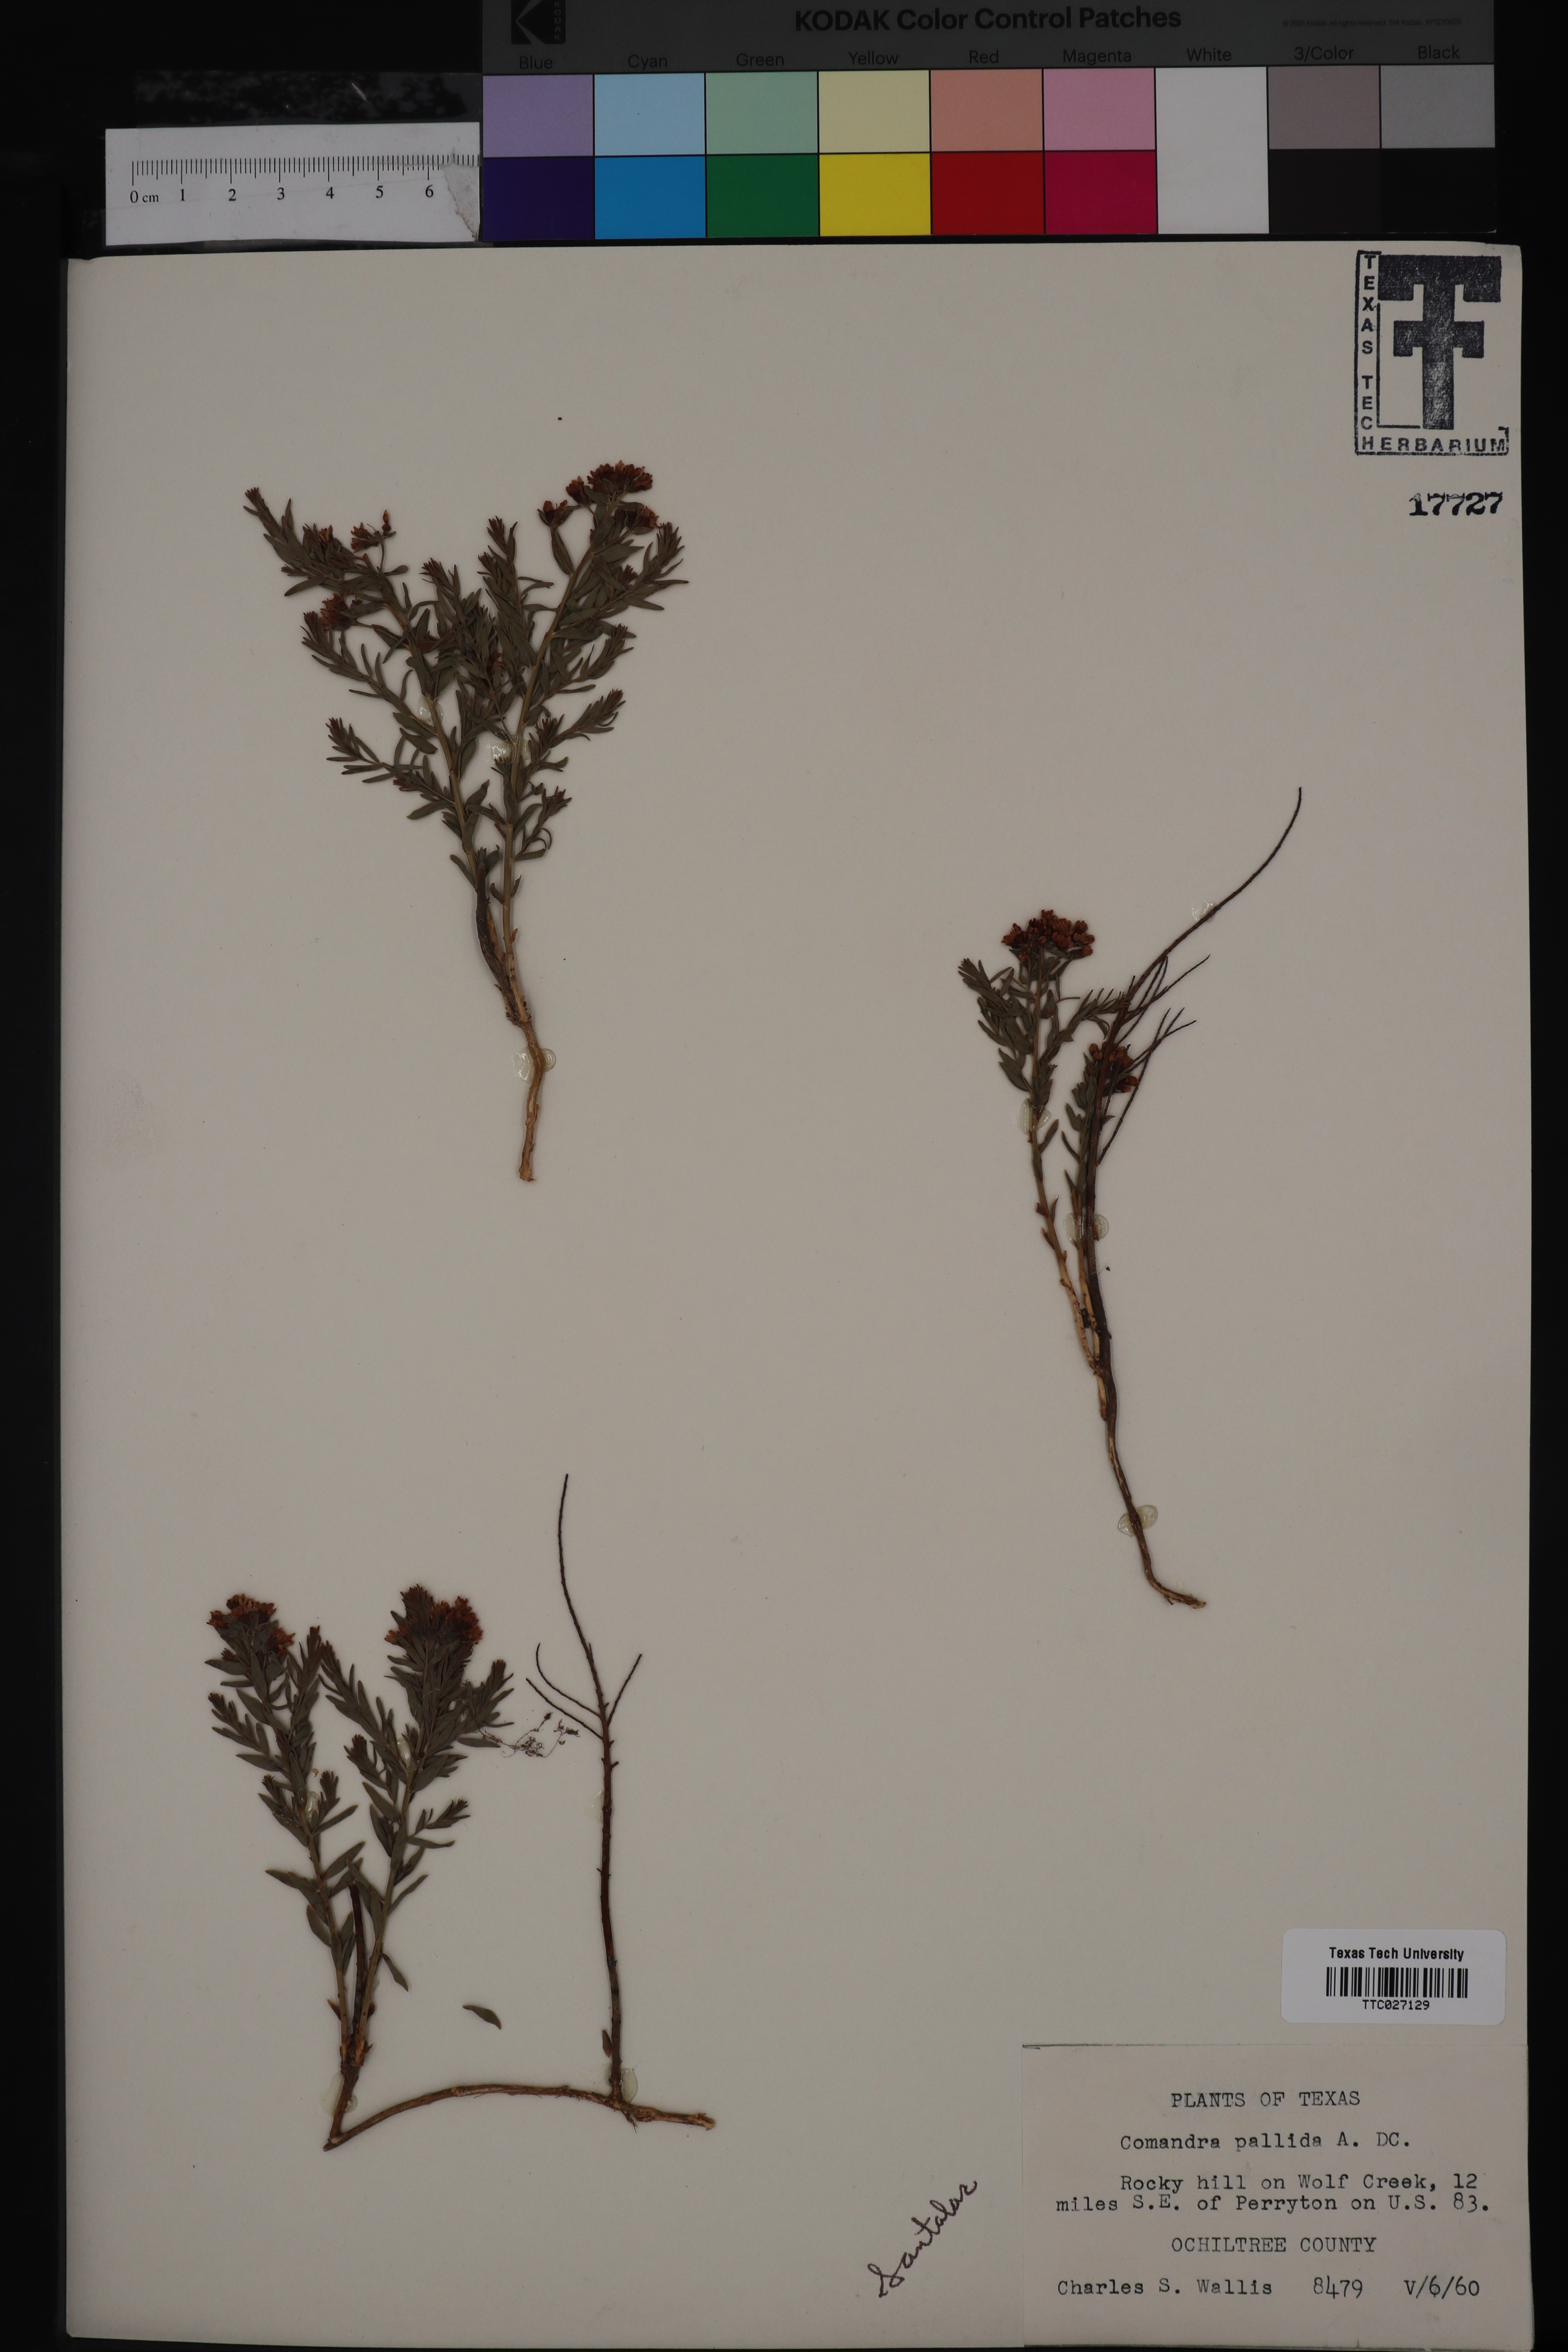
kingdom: Plantae
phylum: Tracheophyta
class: Magnoliopsida
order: Santalales
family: Comandraceae
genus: Comandra
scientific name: Comandra umbellata
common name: Bastard toadflax
